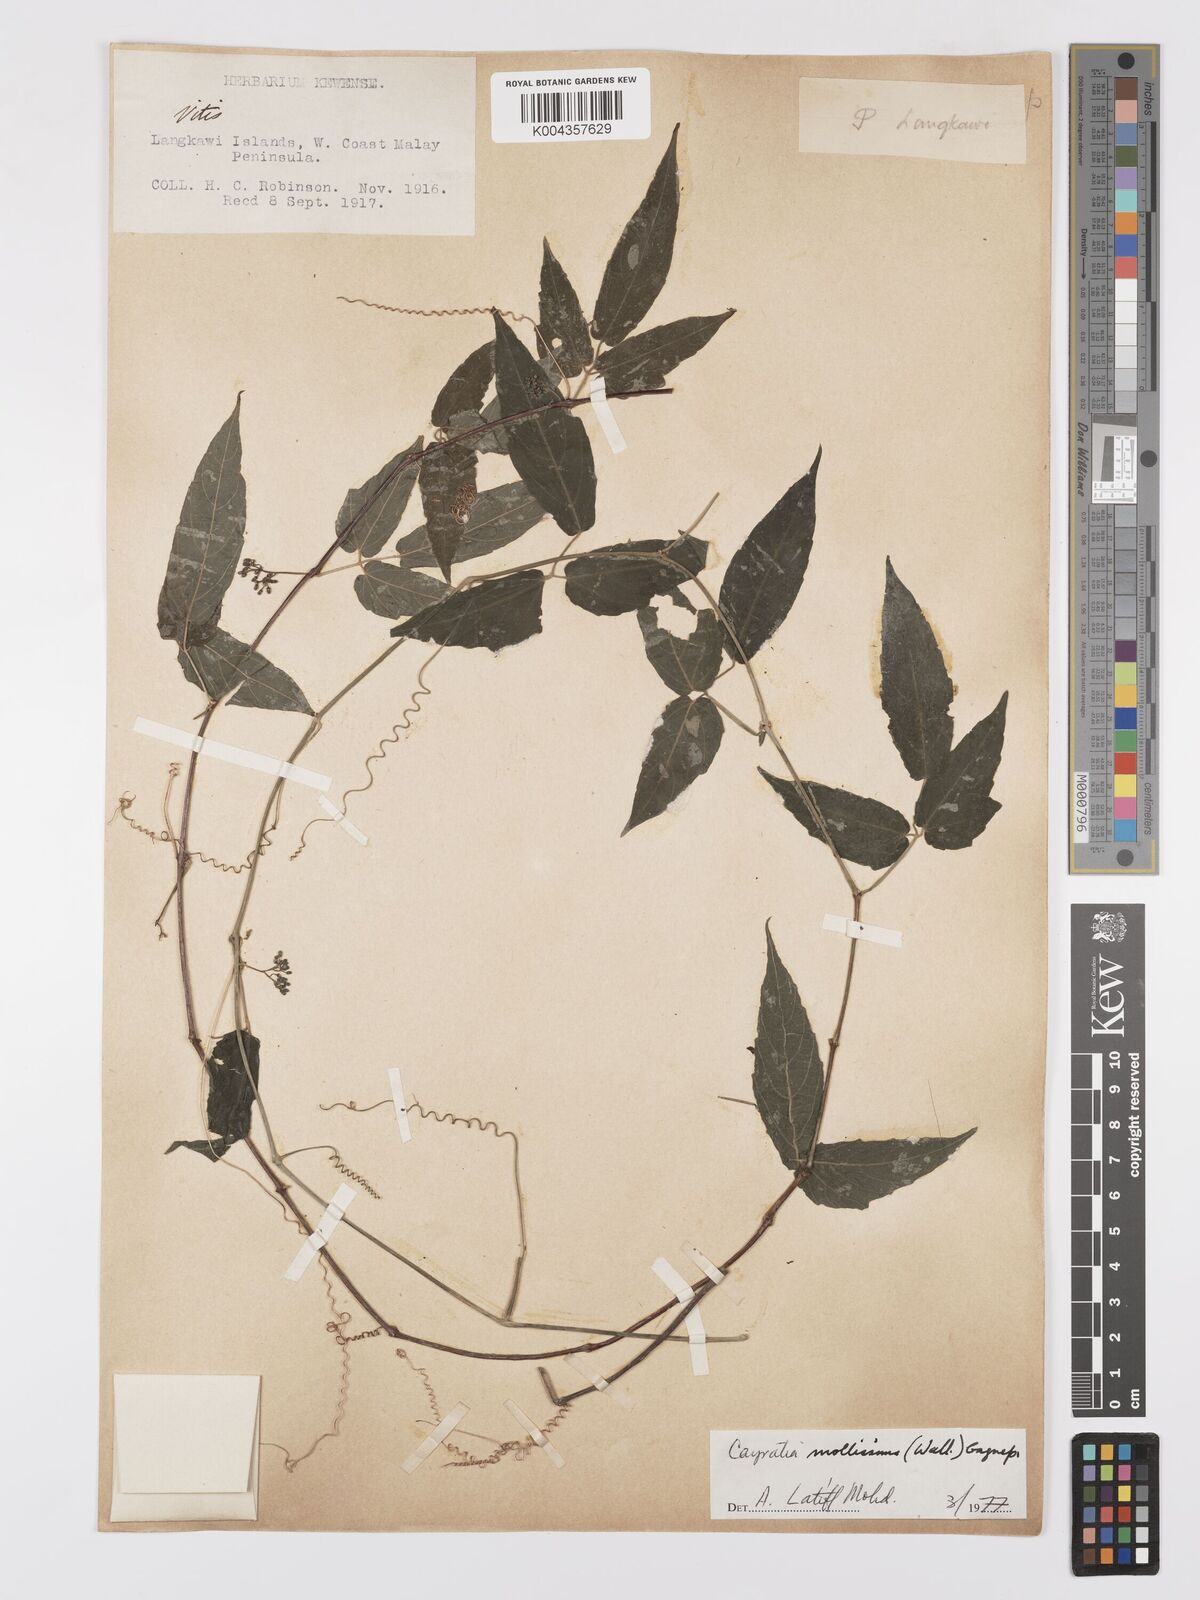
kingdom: Plantae
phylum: Tracheophyta
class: Magnoliopsida
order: Vitales
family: Vitaceae
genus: Cayratia
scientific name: Cayratia mollissima
